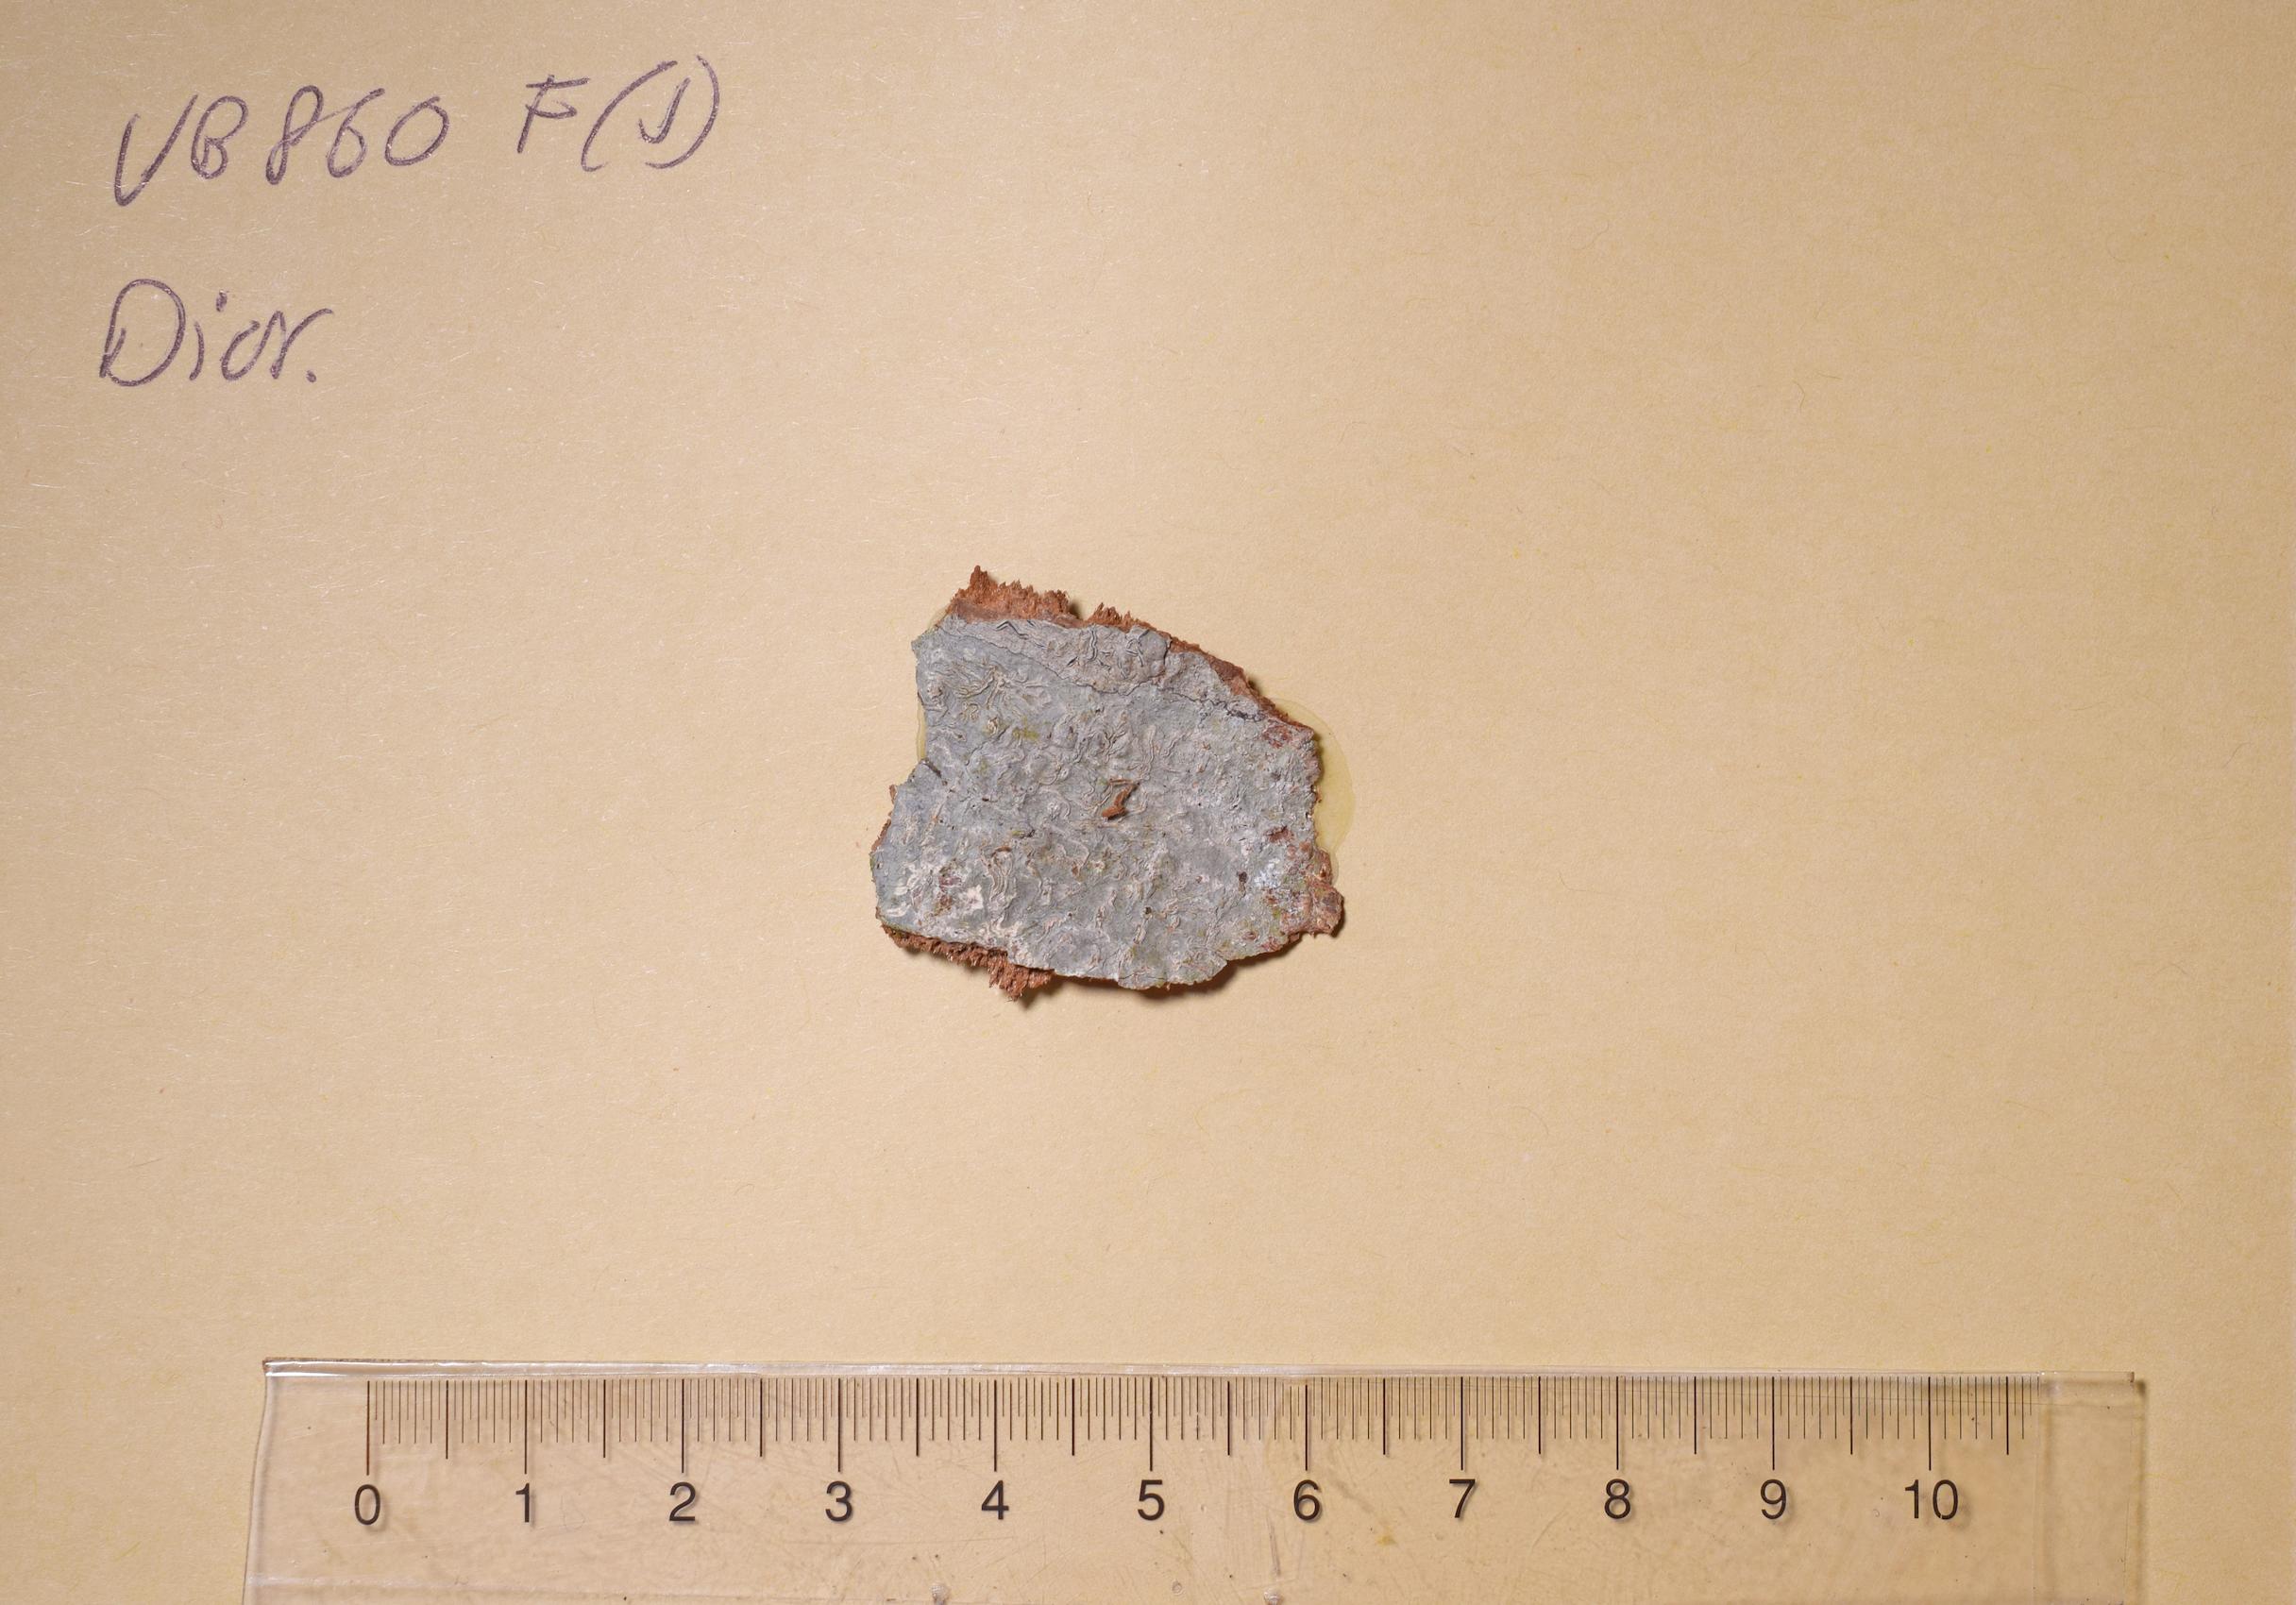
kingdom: Fungi
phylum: Ascomycota
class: Lecanoromycetes
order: Ostropales
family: Graphidaceae
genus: Diorygma
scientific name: Diorygma
